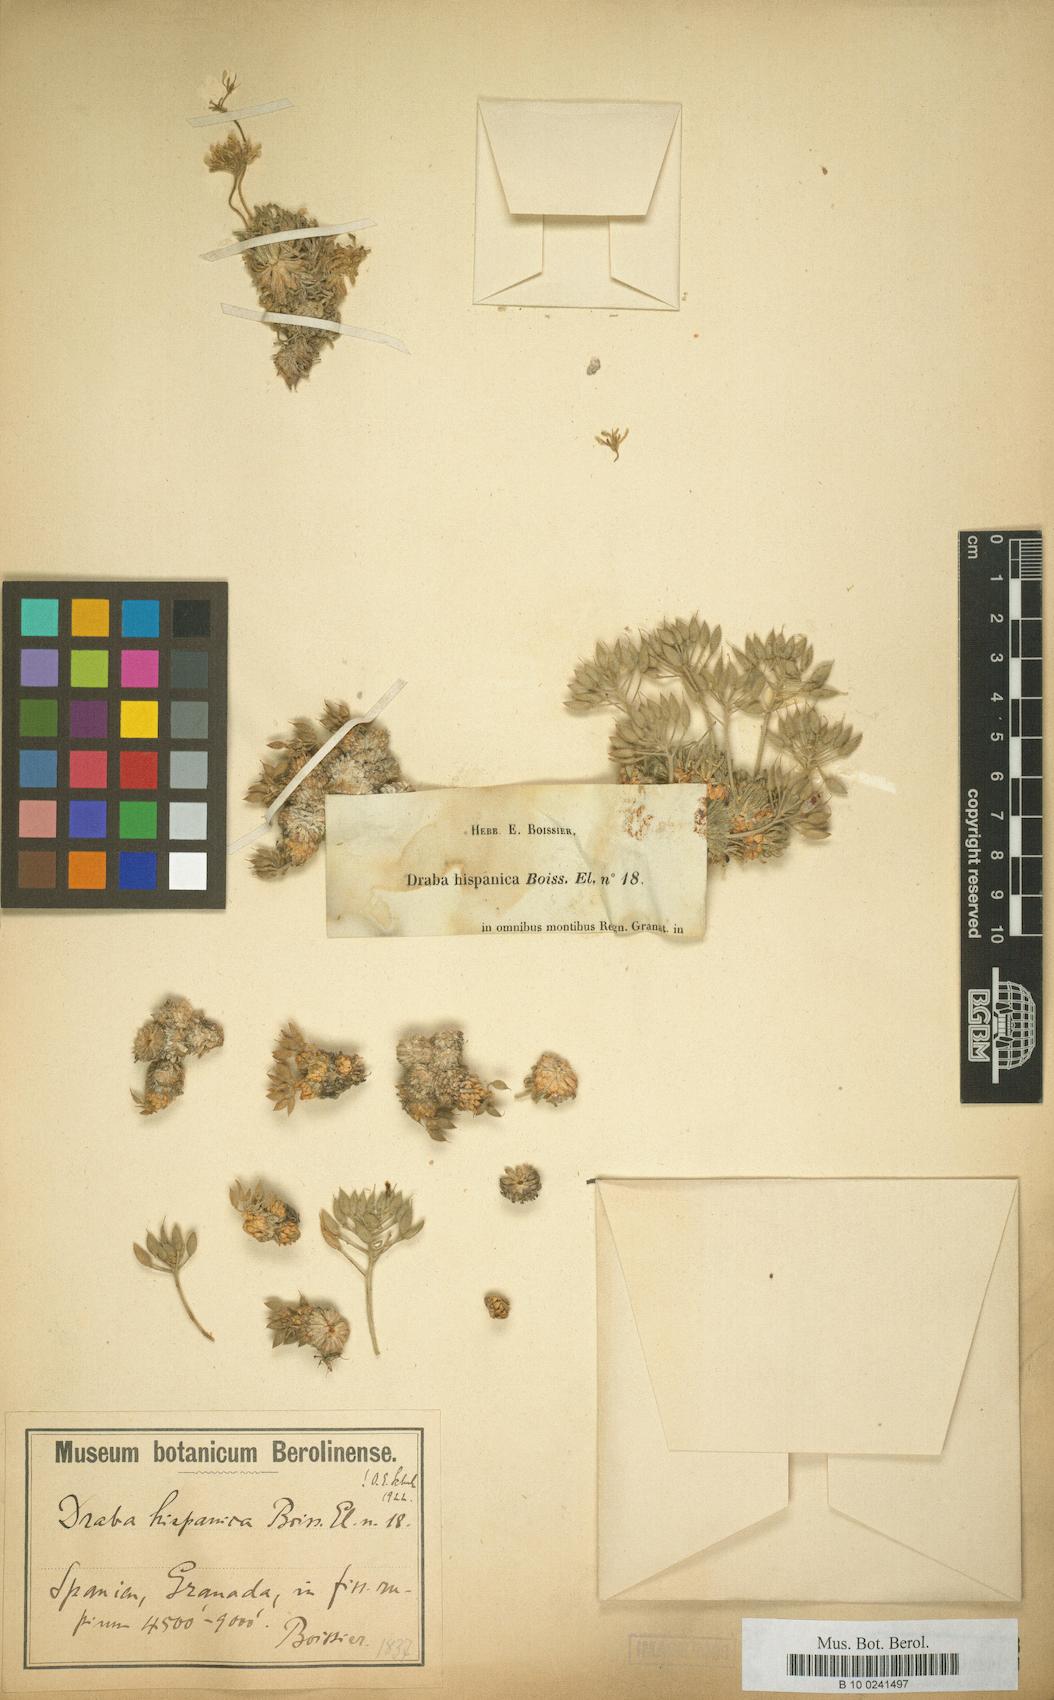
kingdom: Plantae
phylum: Tracheophyta
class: Magnoliopsida
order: Brassicales
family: Brassicaceae
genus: Draba
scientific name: Draba hispanica
